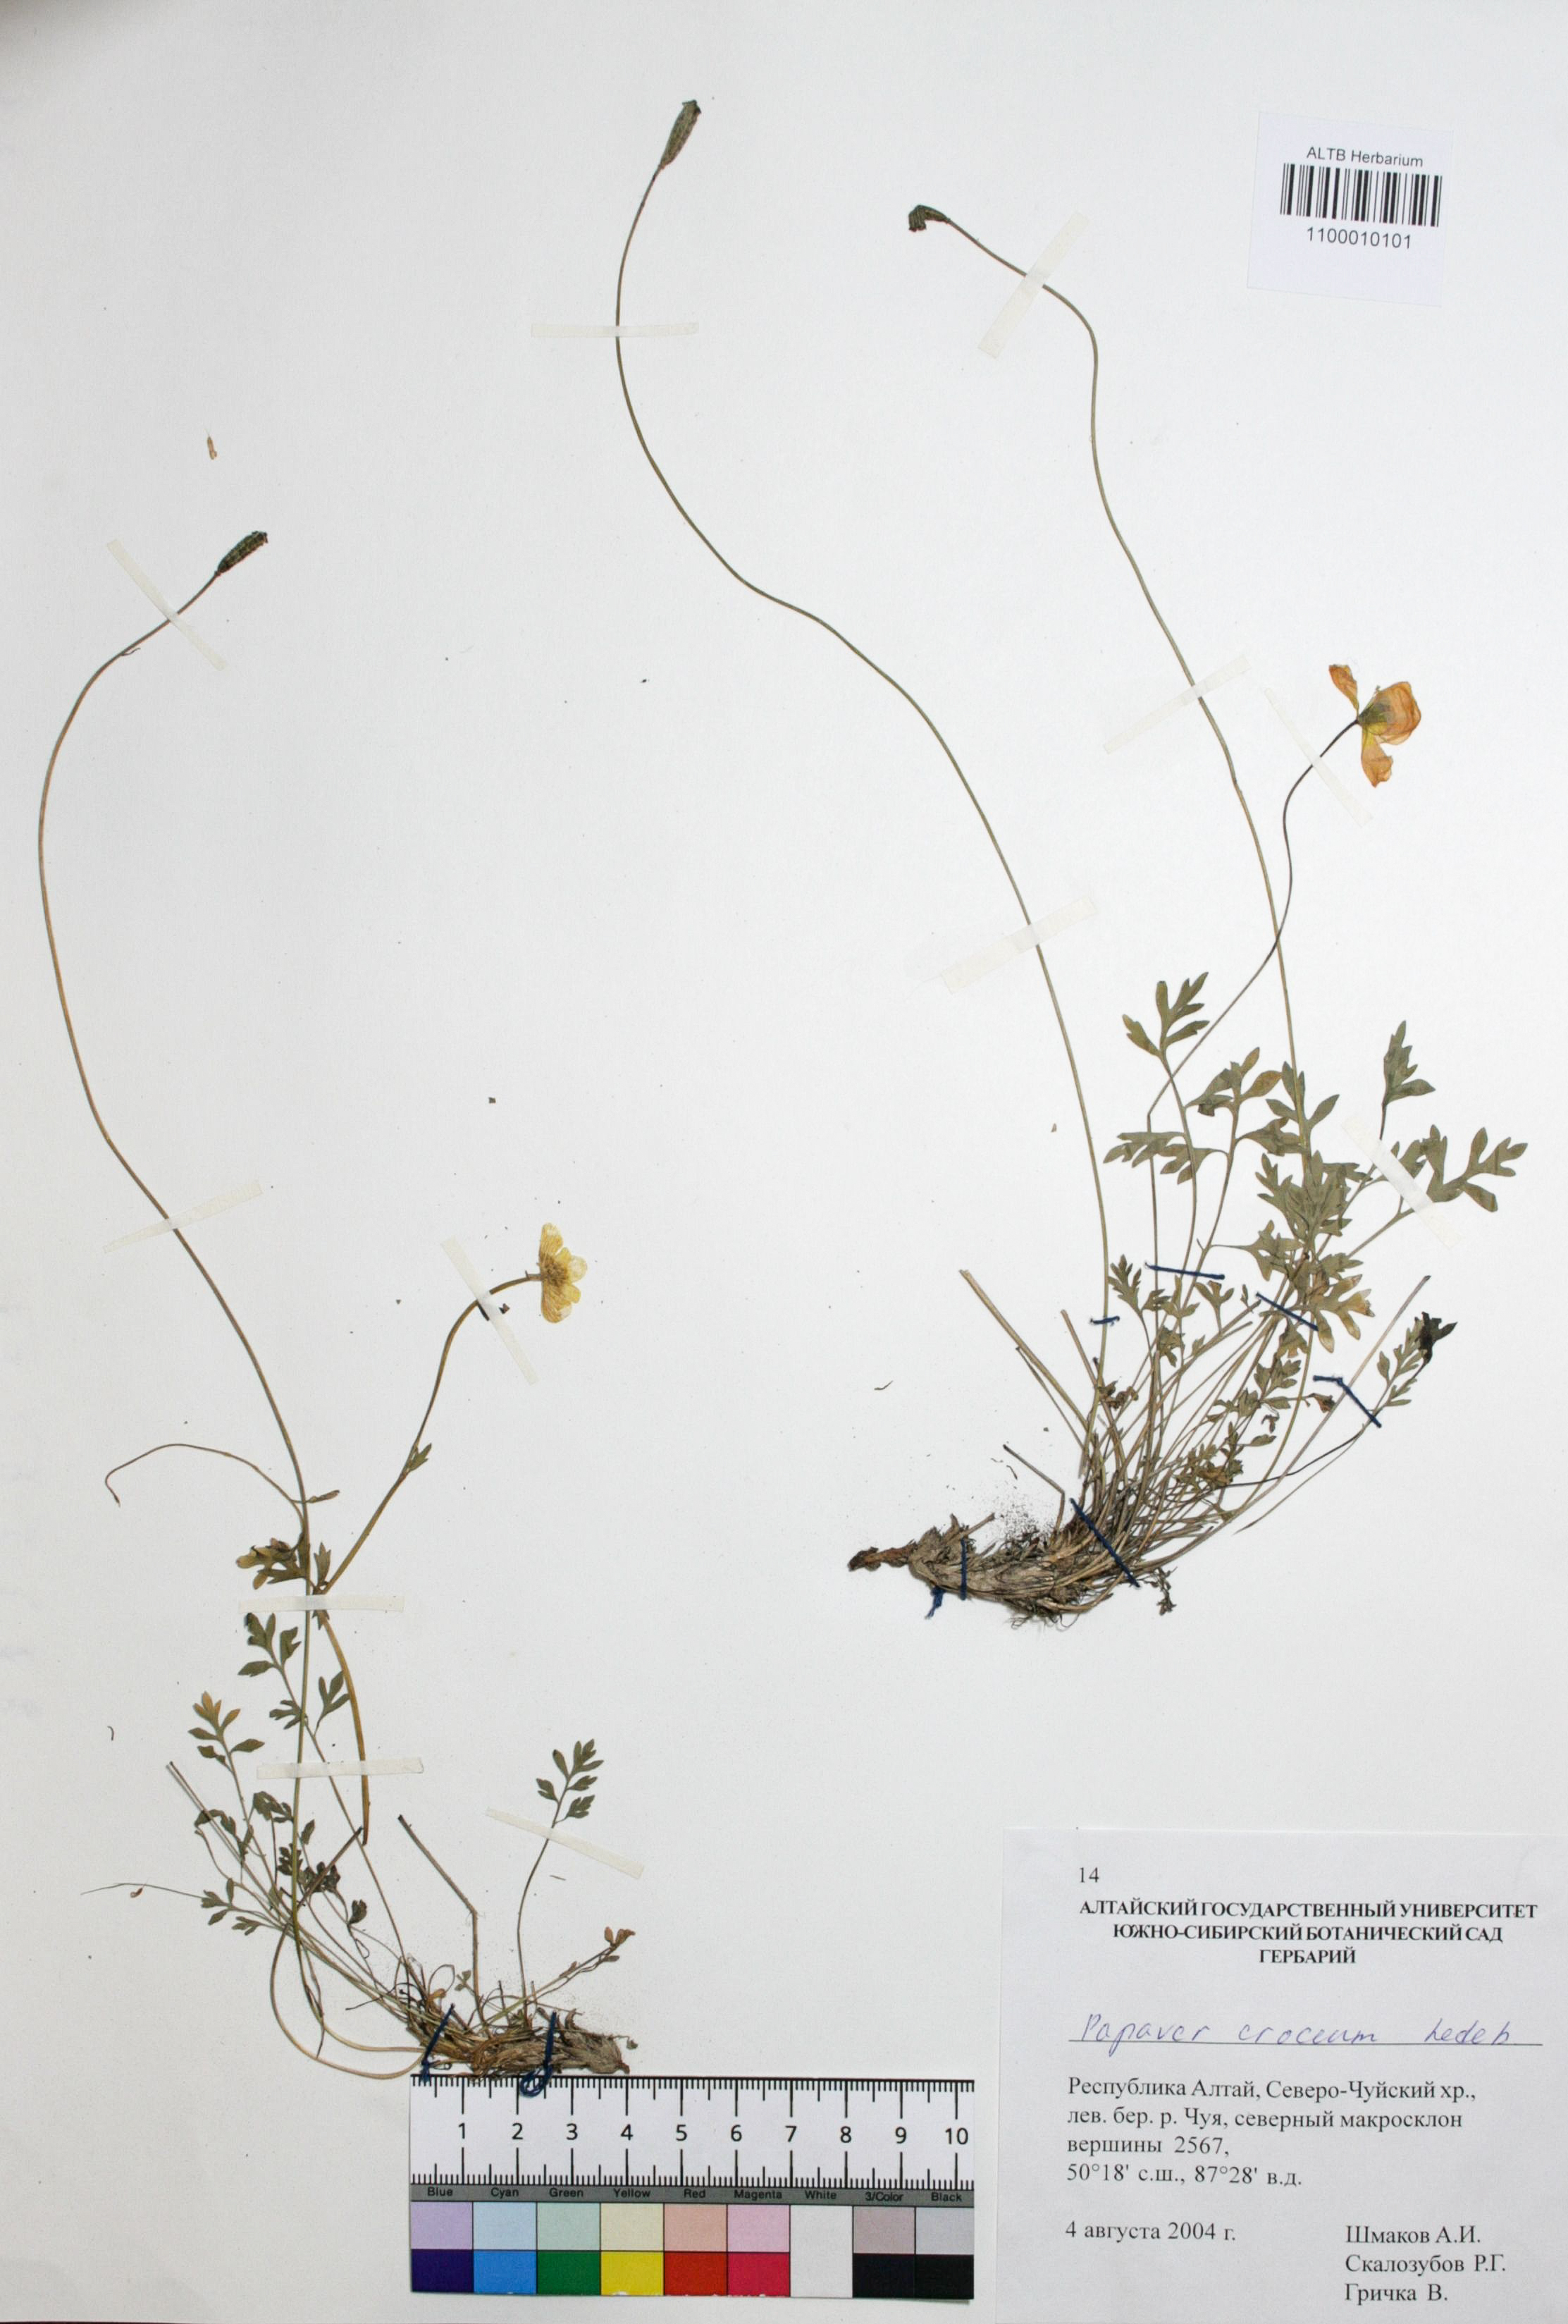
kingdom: Plantae
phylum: Tracheophyta
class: Magnoliopsida
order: Ranunculales
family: Papaveraceae
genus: Papaver
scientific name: Papaver croceum
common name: Siberian poppy
